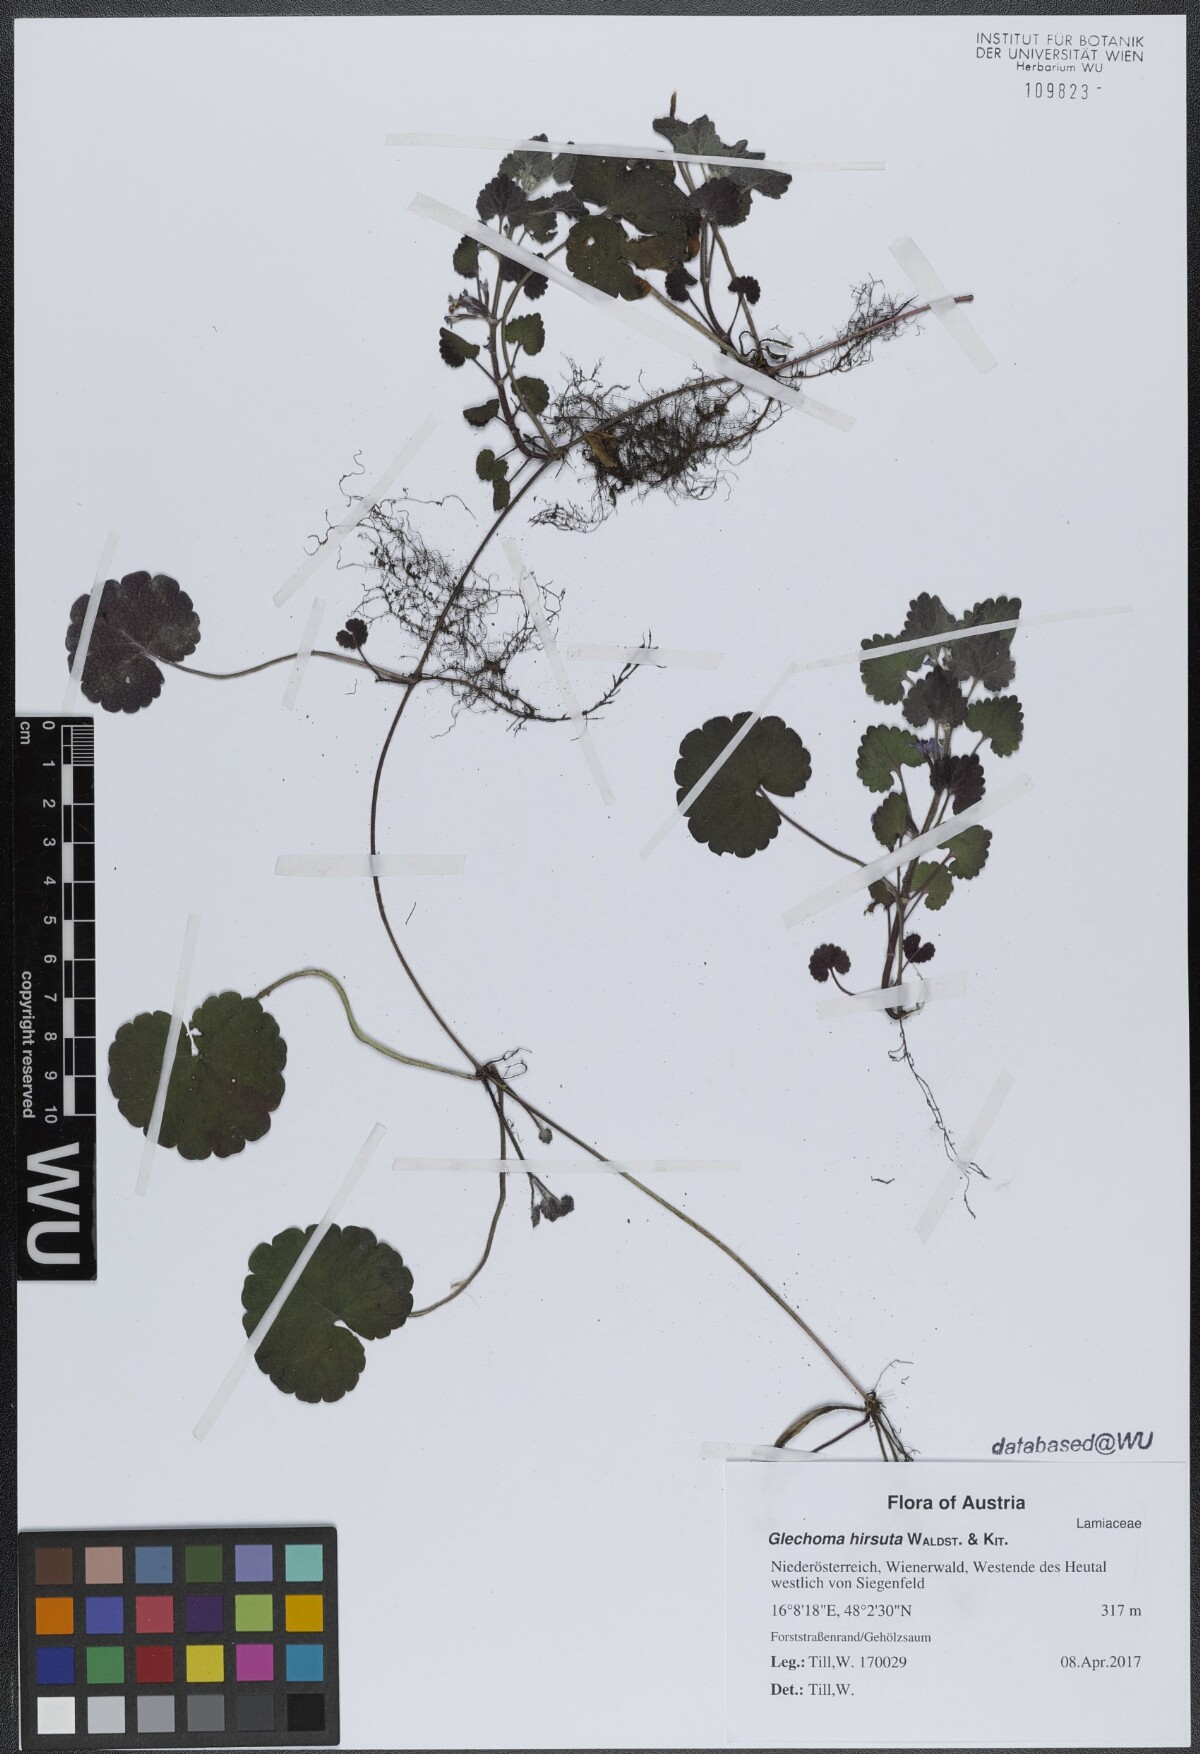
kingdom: Plantae
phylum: Tracheophyta
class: Magnoliopsida
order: Lamiales
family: Lamiaceae
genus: Glechoma
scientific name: Glechoma hirsuta
